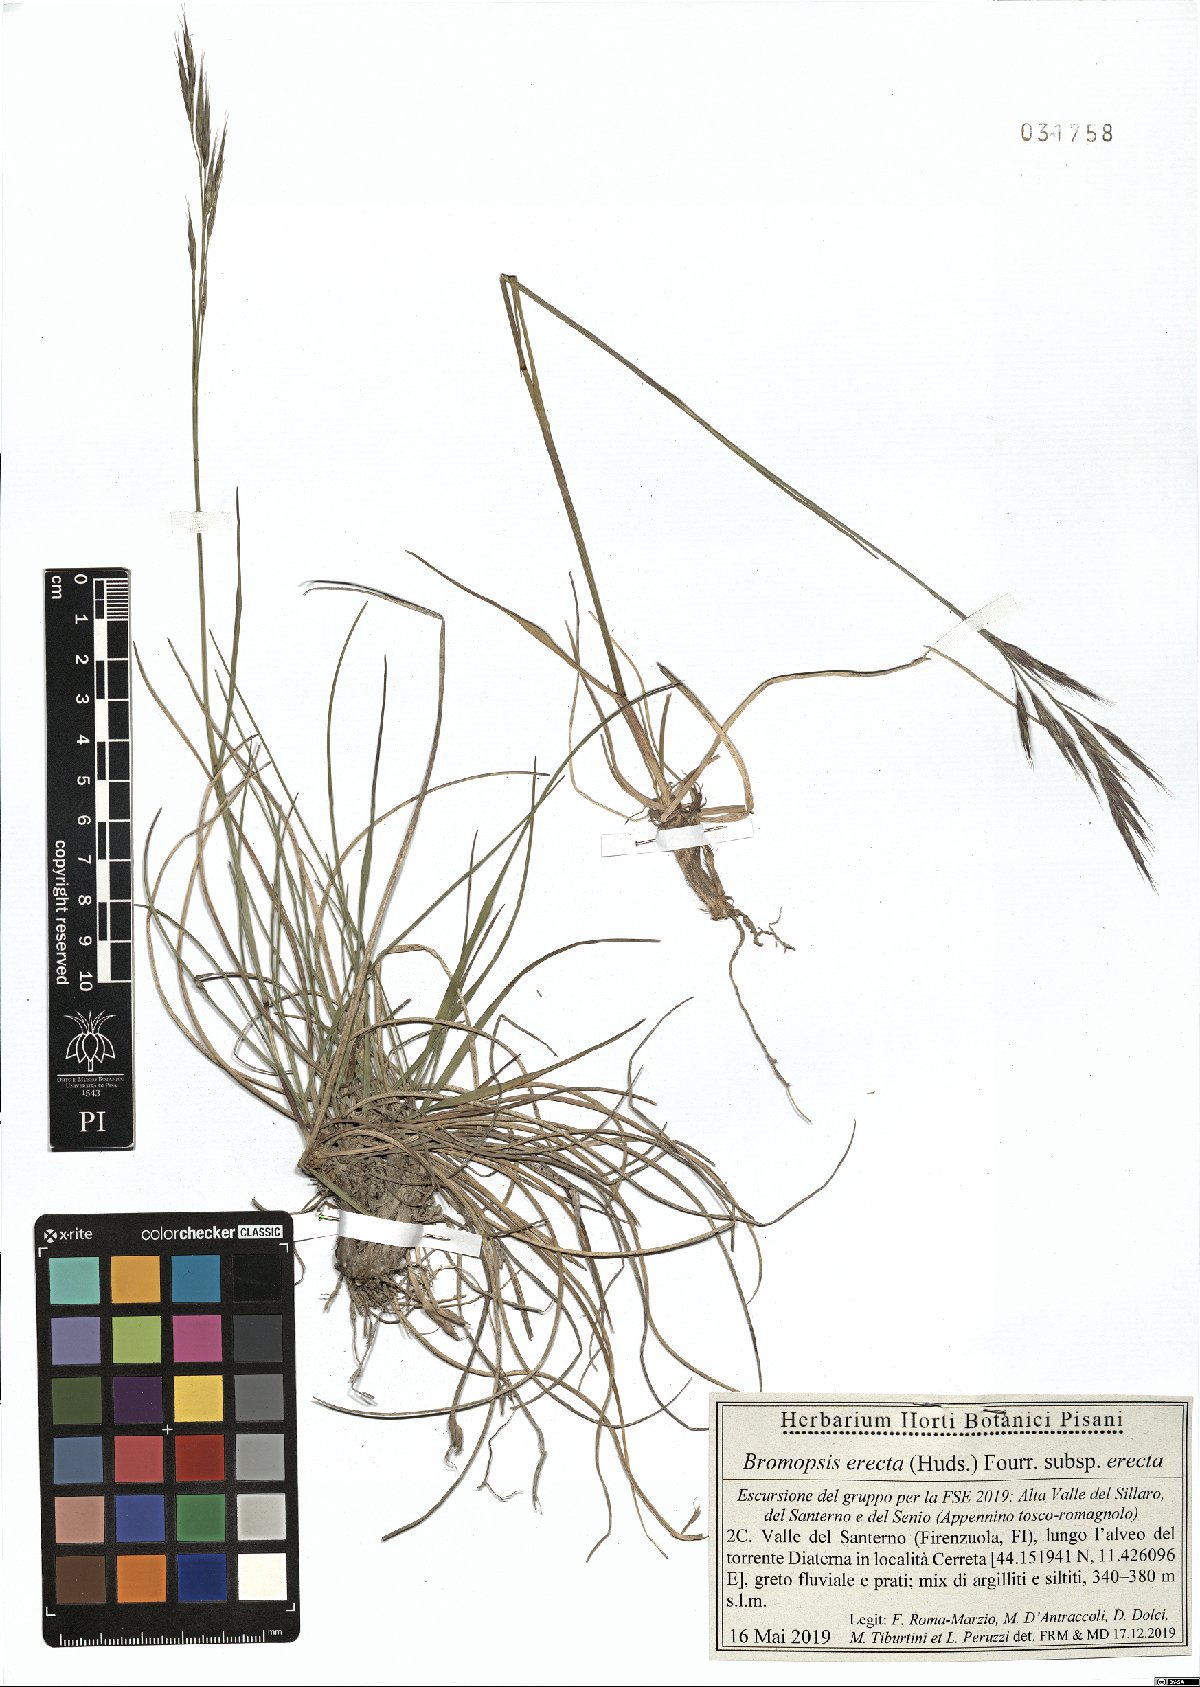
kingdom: Plantae
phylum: Tracheophyta
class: Liliopsida
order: Poales
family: Poaceae
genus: Bromus
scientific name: Bromus erectus
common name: Erect brome
